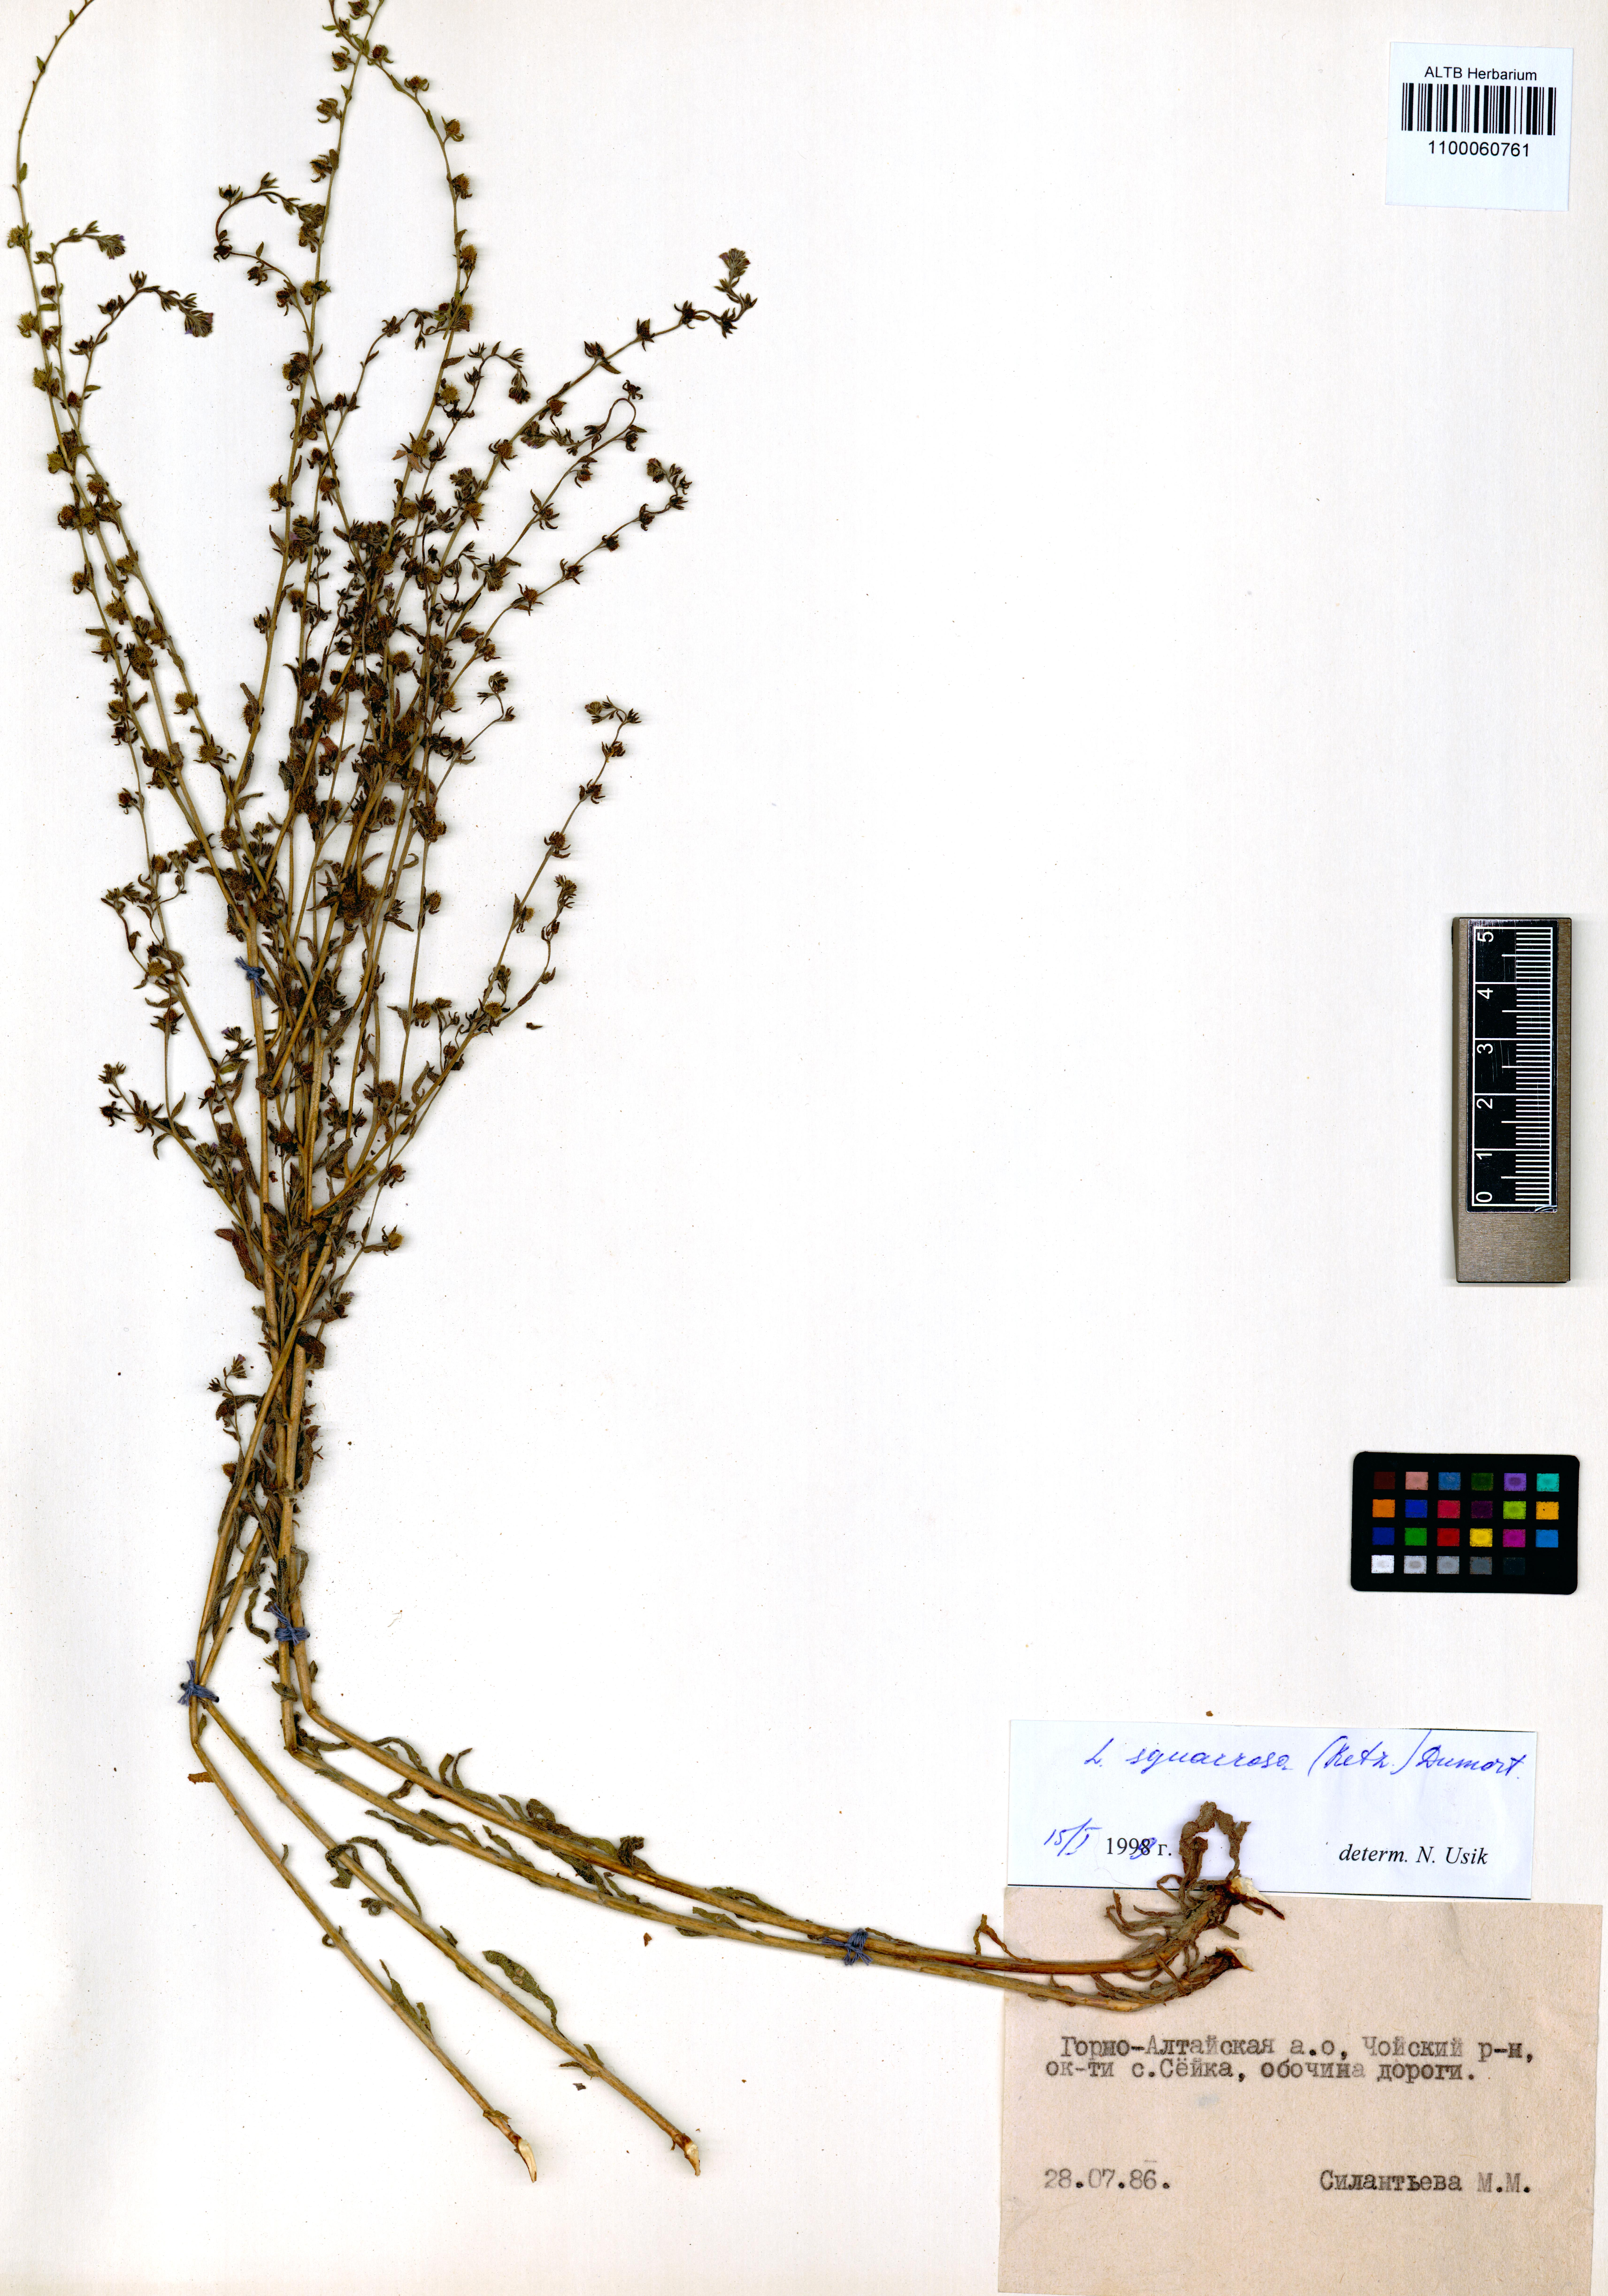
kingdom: Plantae
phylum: Tracheophyta
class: Magnoliopsida
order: Boraginales
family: Boraginaceae
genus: Lappula
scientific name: Lappula squarrosa
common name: European stickseed
